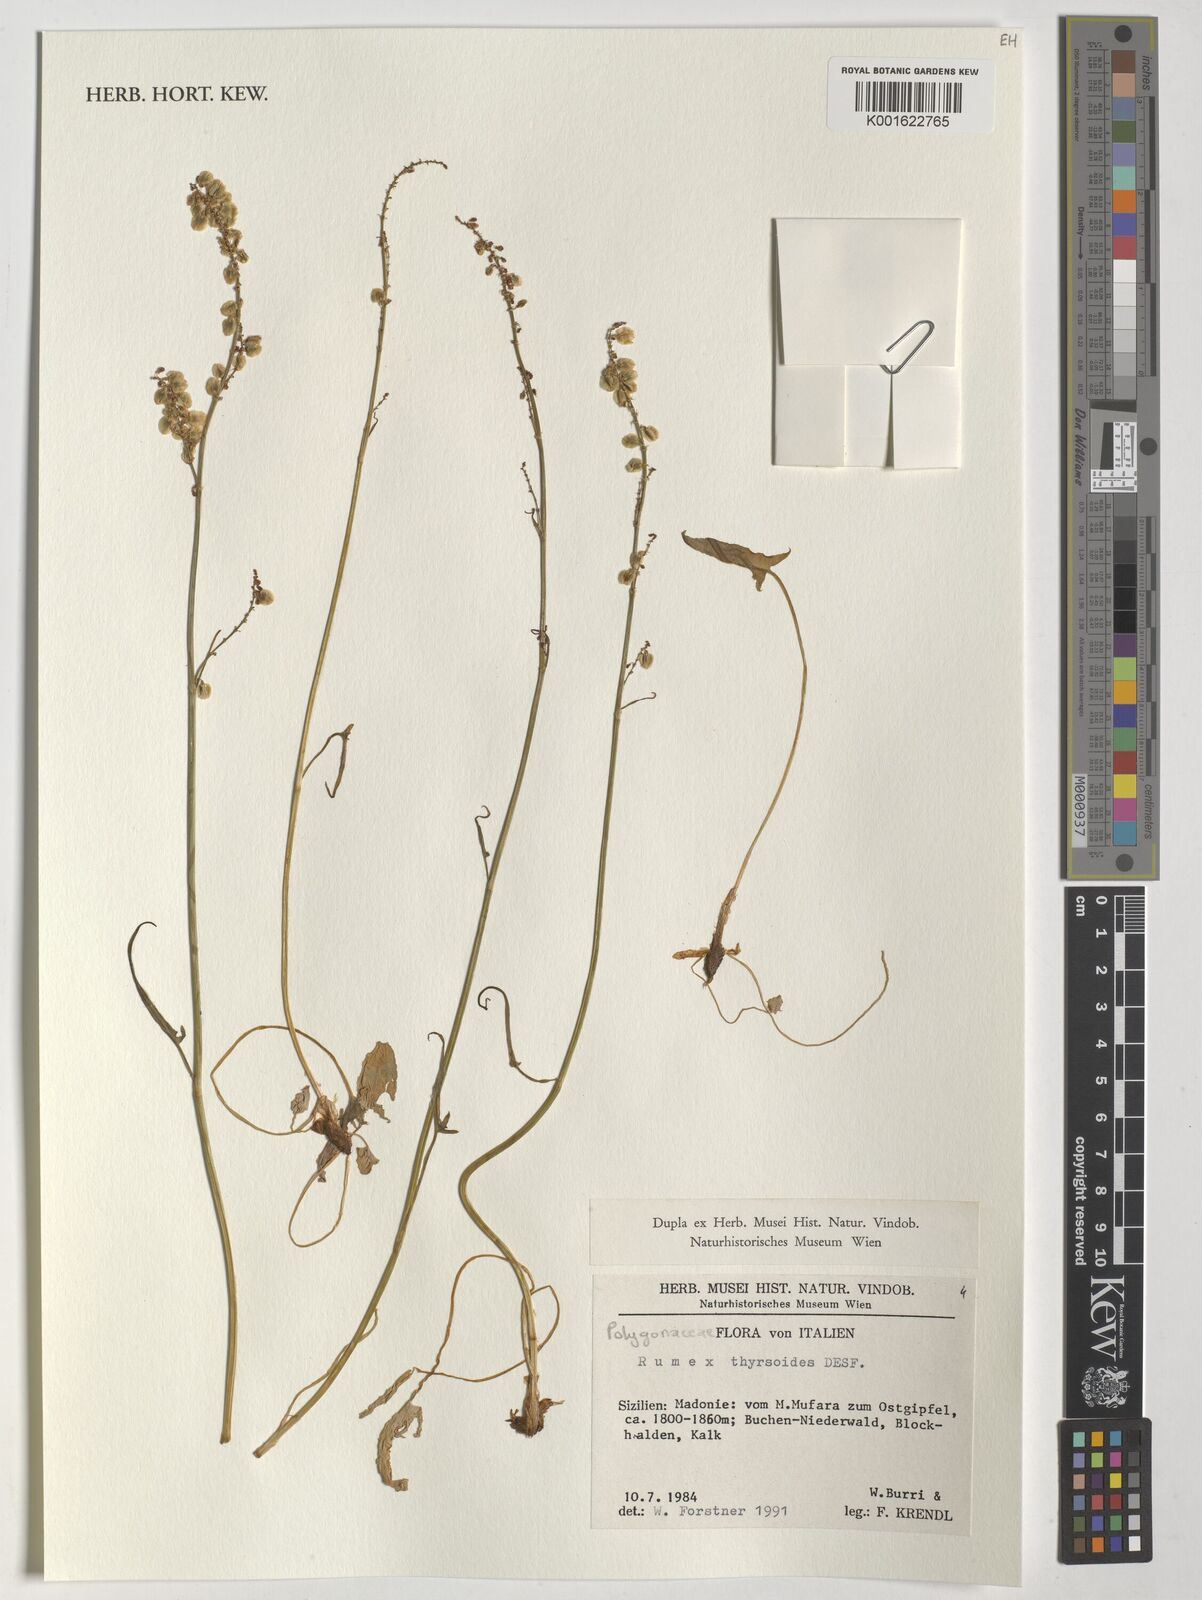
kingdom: Plantae
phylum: Tracheophyta
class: Magnoliopsida
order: Caryophyllales
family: Polygonaceae
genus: Rumex
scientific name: Rumex thyrsoides
